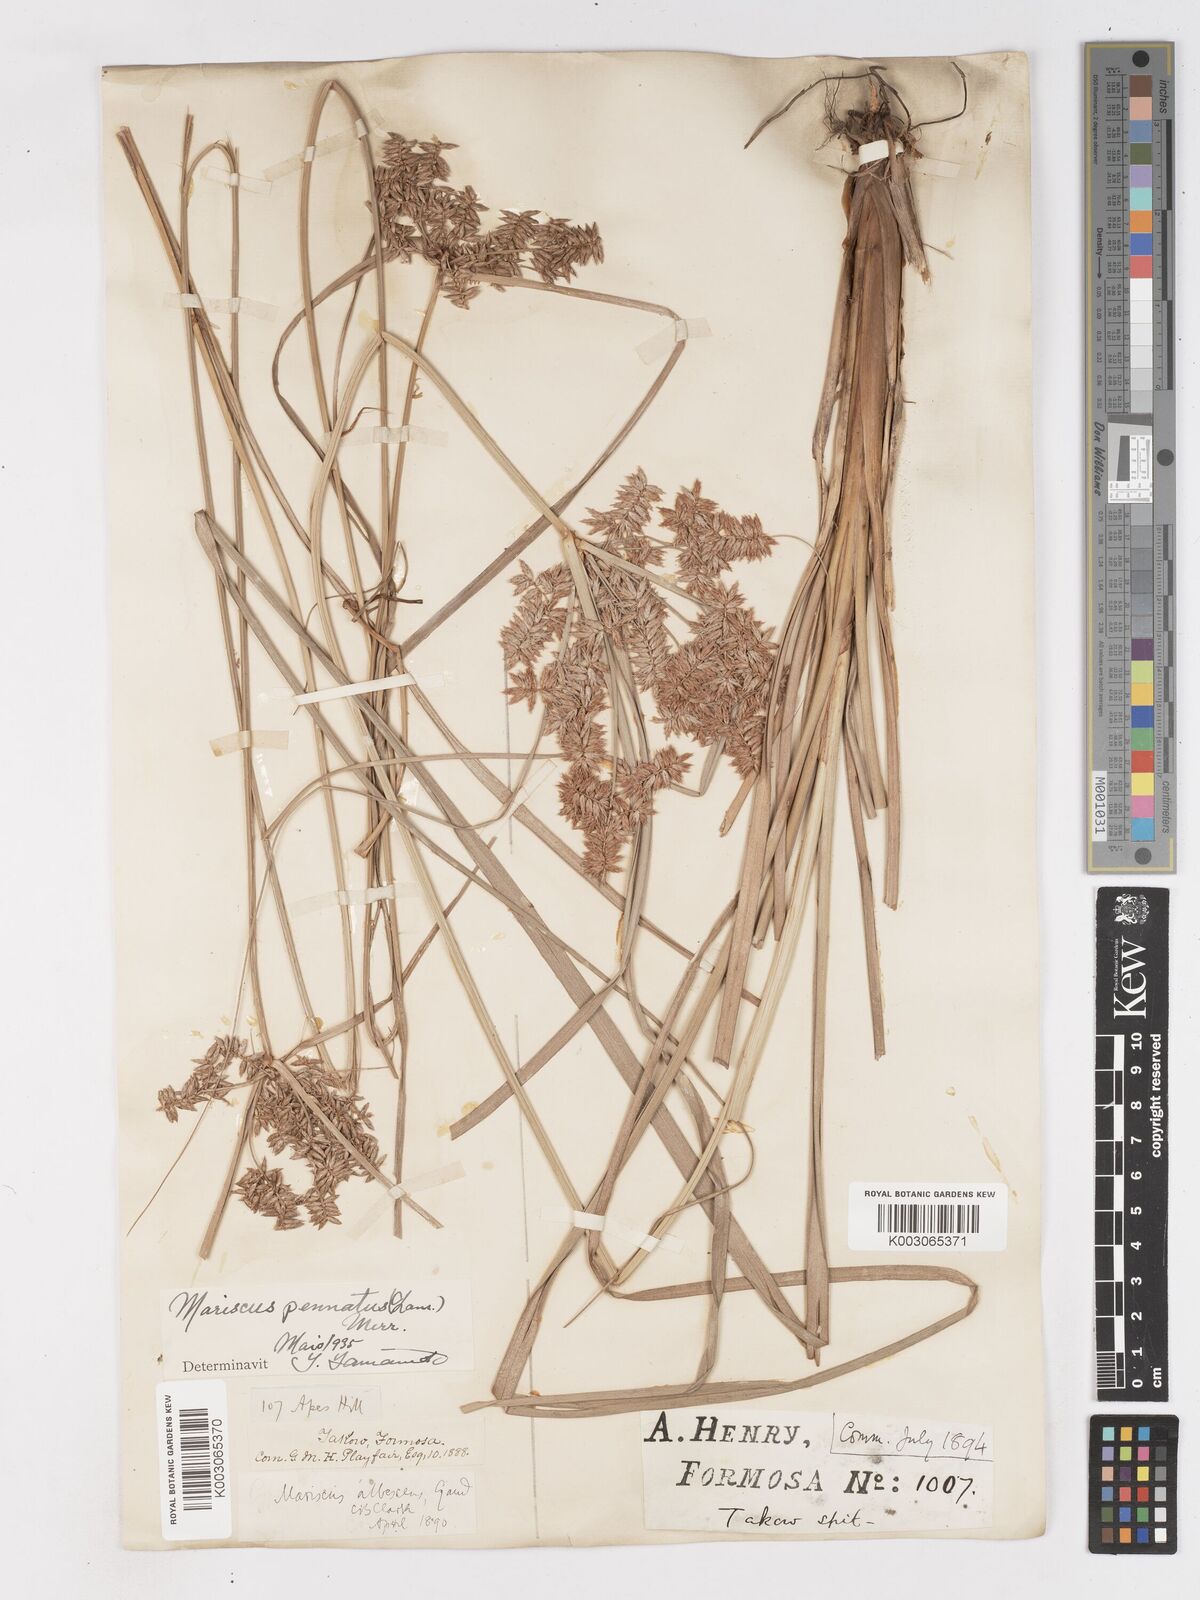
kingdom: Plantae
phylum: Tracheophyta
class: Liliopsida
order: Poales
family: Cyperaceae
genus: Cyperus
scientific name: Cyperus javanicus
